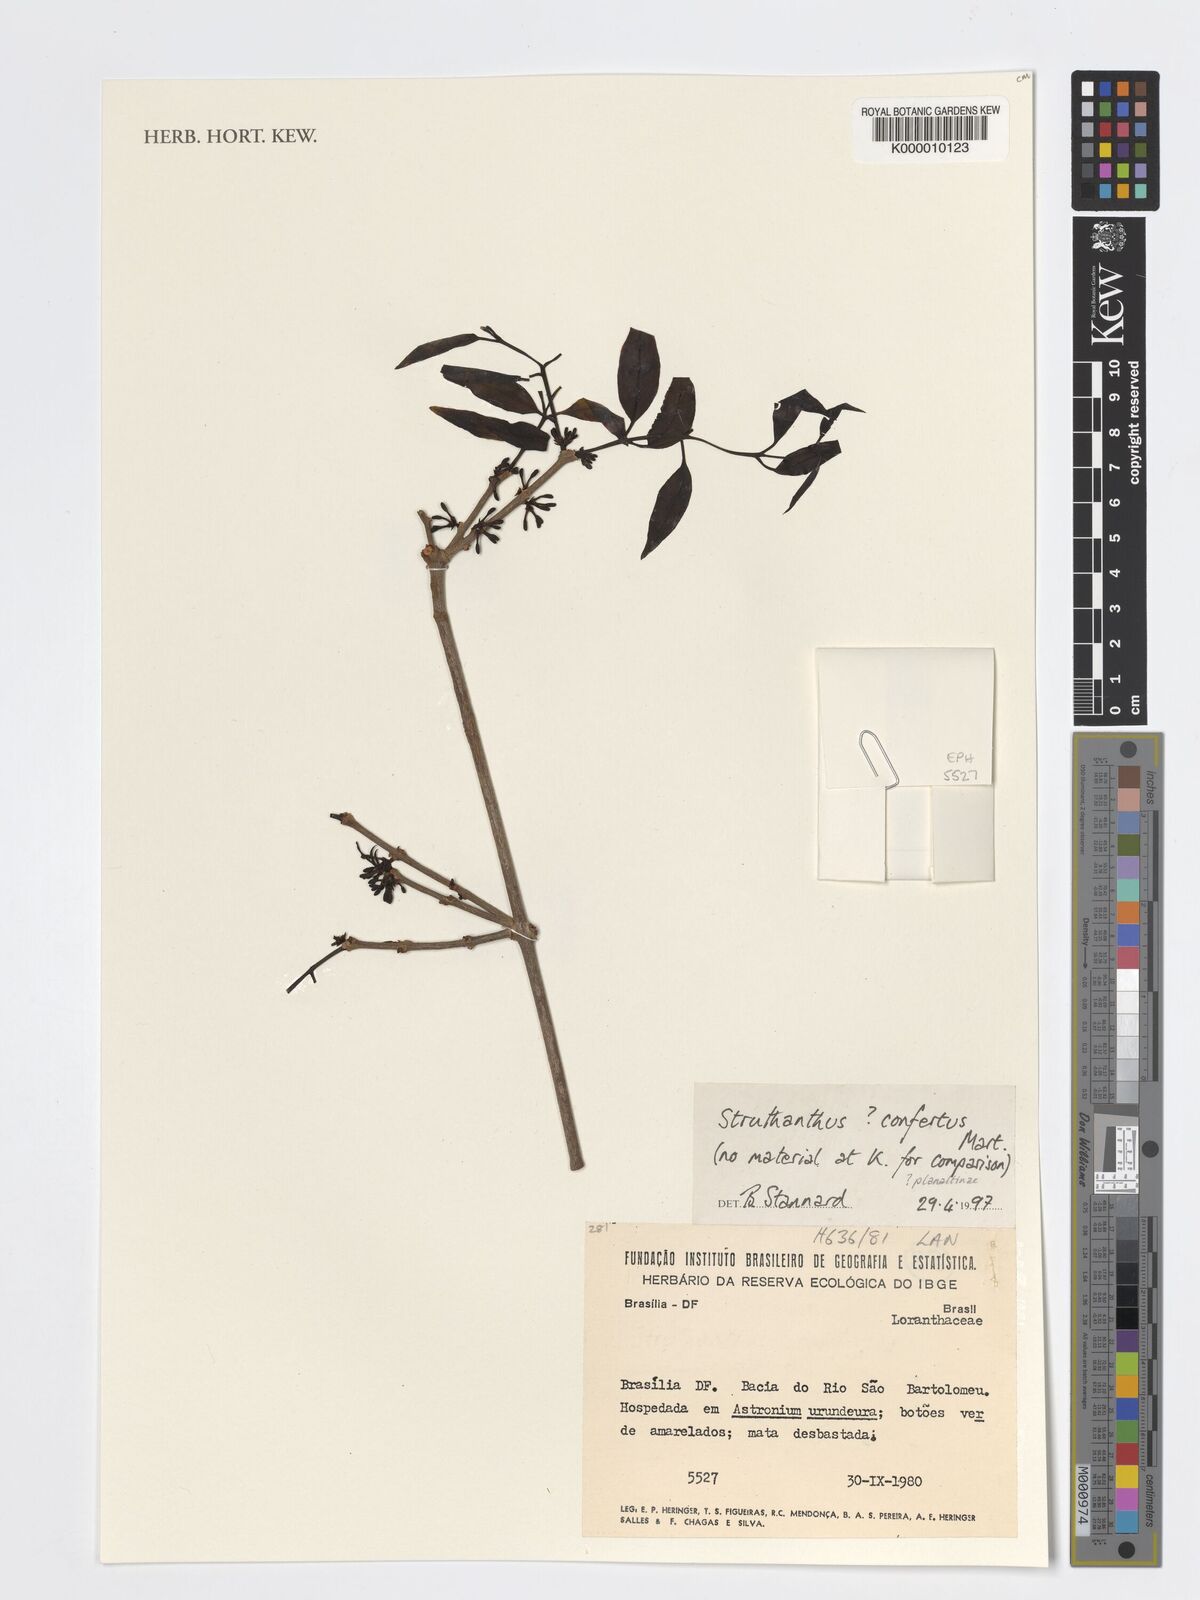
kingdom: Plantae
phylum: Tracheophyta
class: Magnoliopsida
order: Santalales
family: Loranthaceae
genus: Struthanthus
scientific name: Struthanthus confertus
